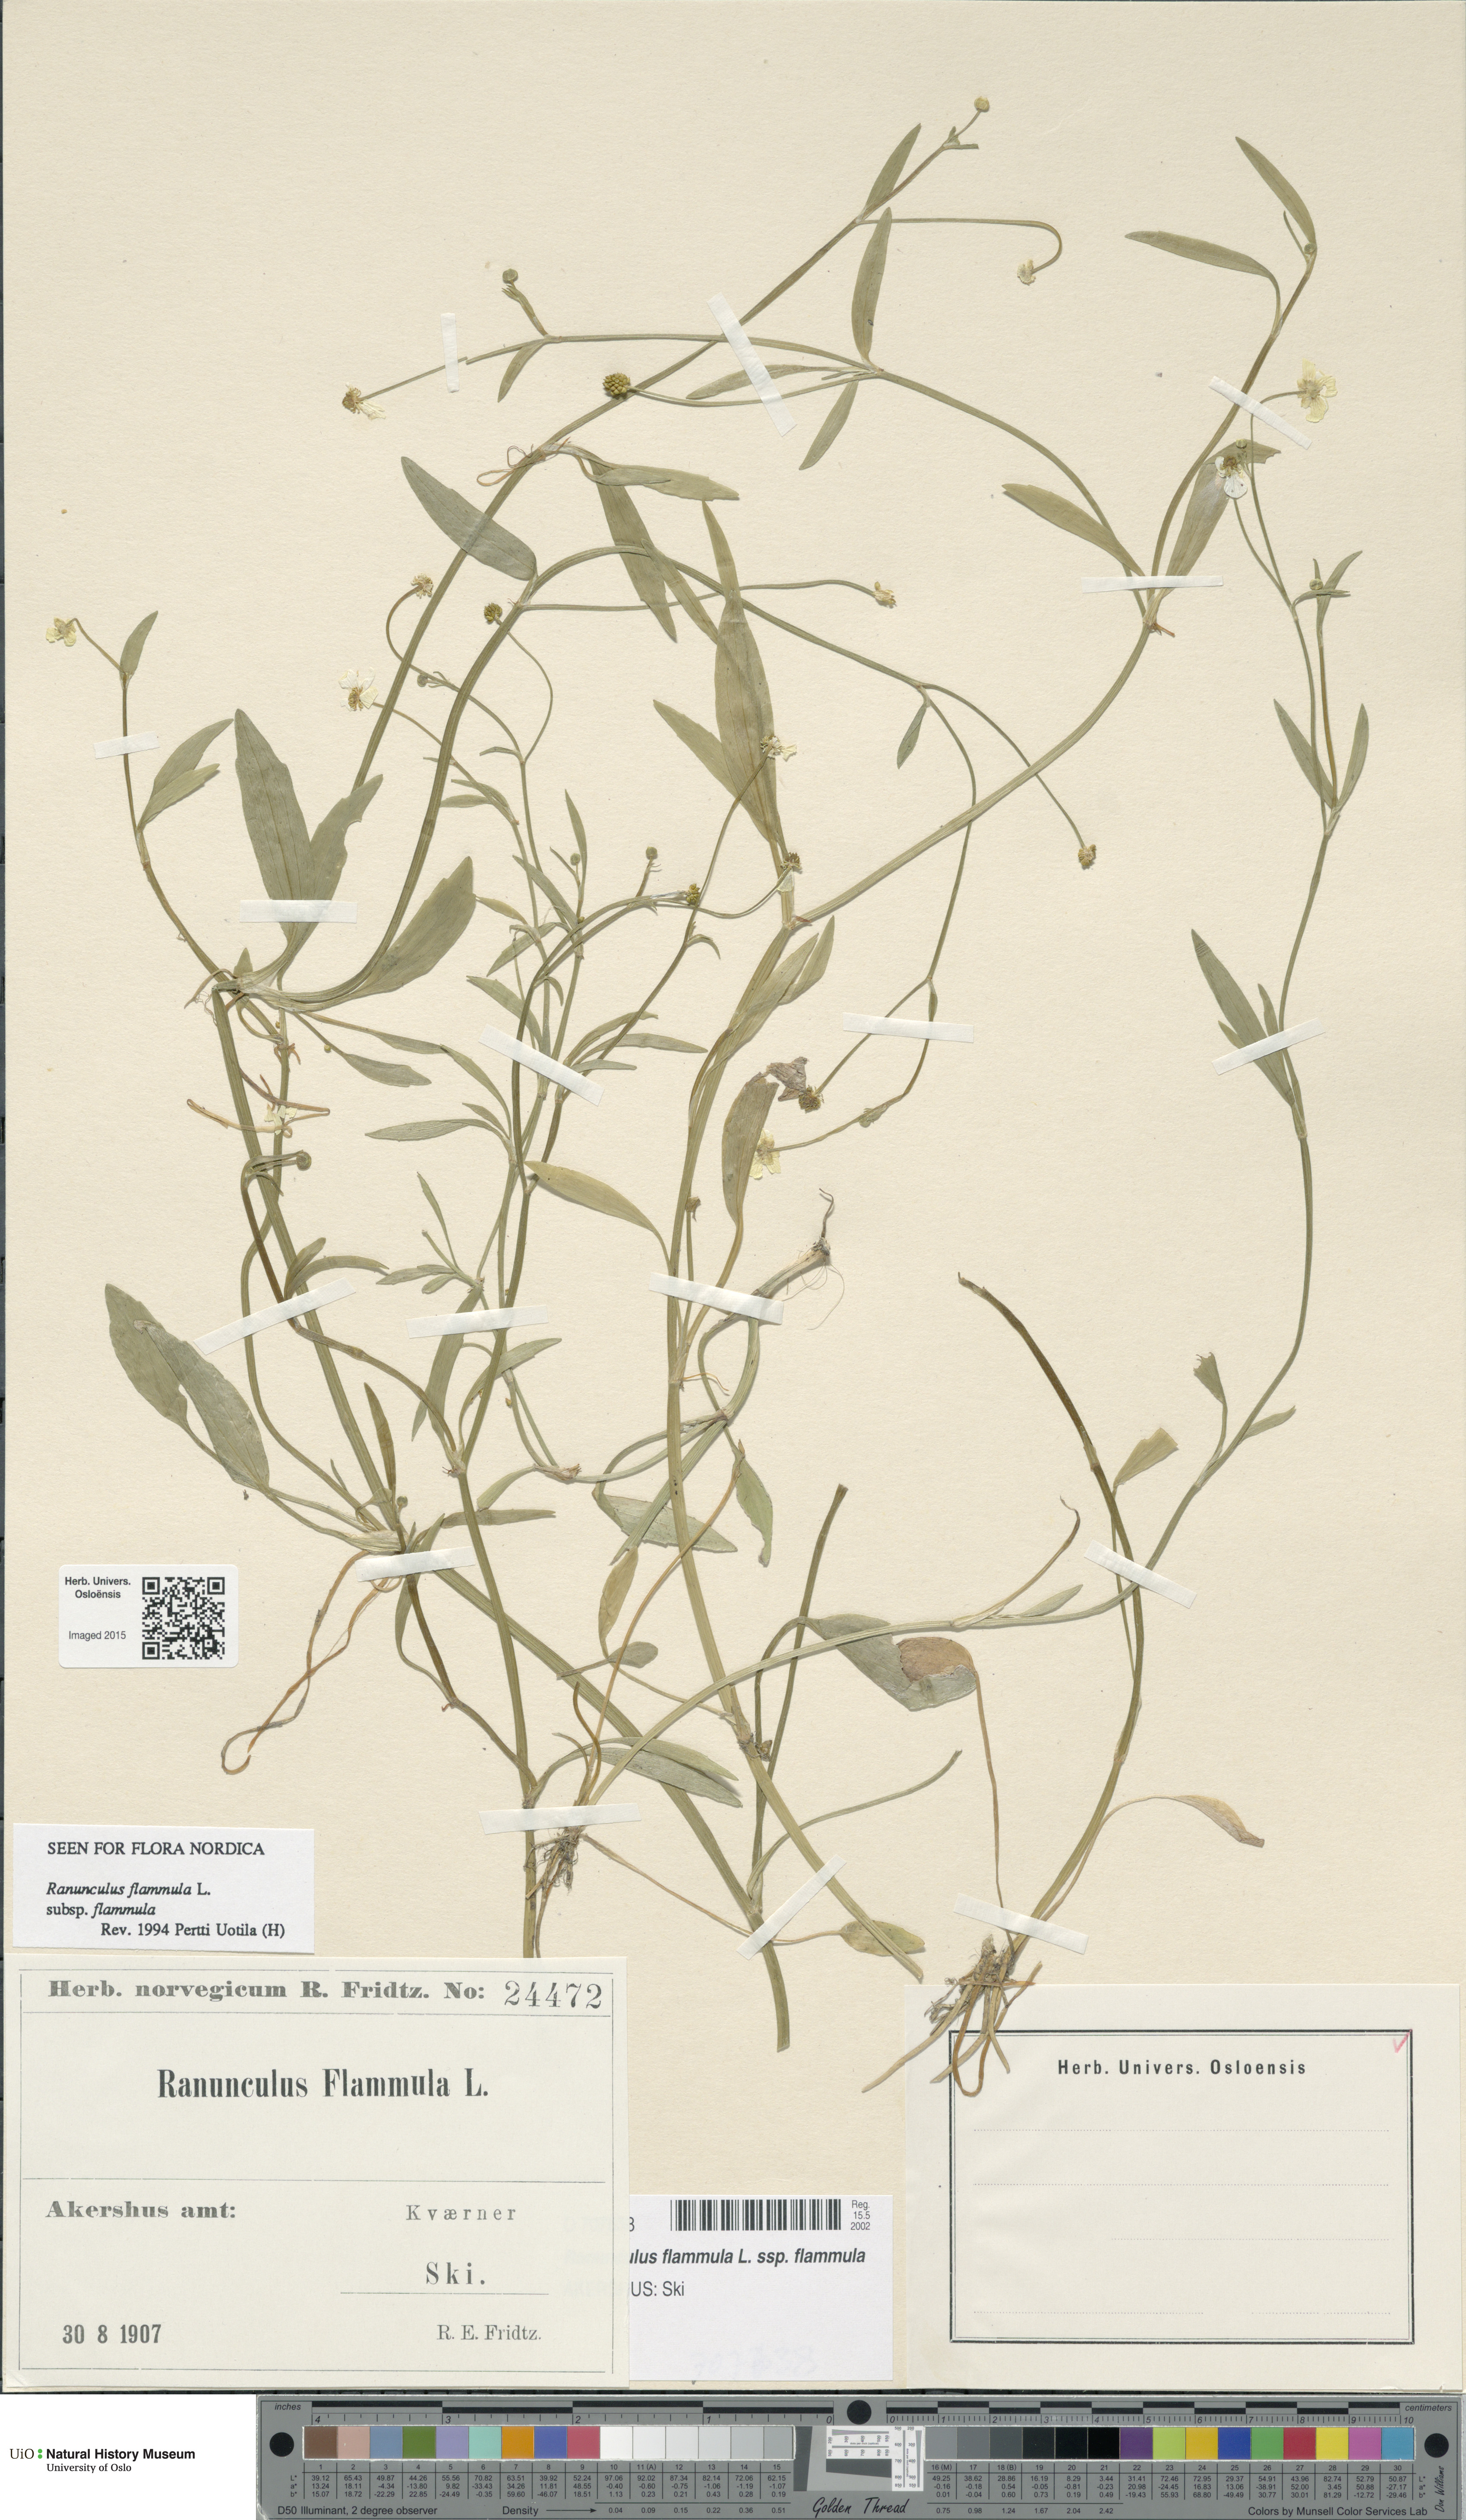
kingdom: Plantae
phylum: Tracheophyta
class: Magnoliopsida
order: Ranunculales
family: Ranunculaceae
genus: Ranunculus
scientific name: Ranunculus flammula
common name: Lesser spearwort
